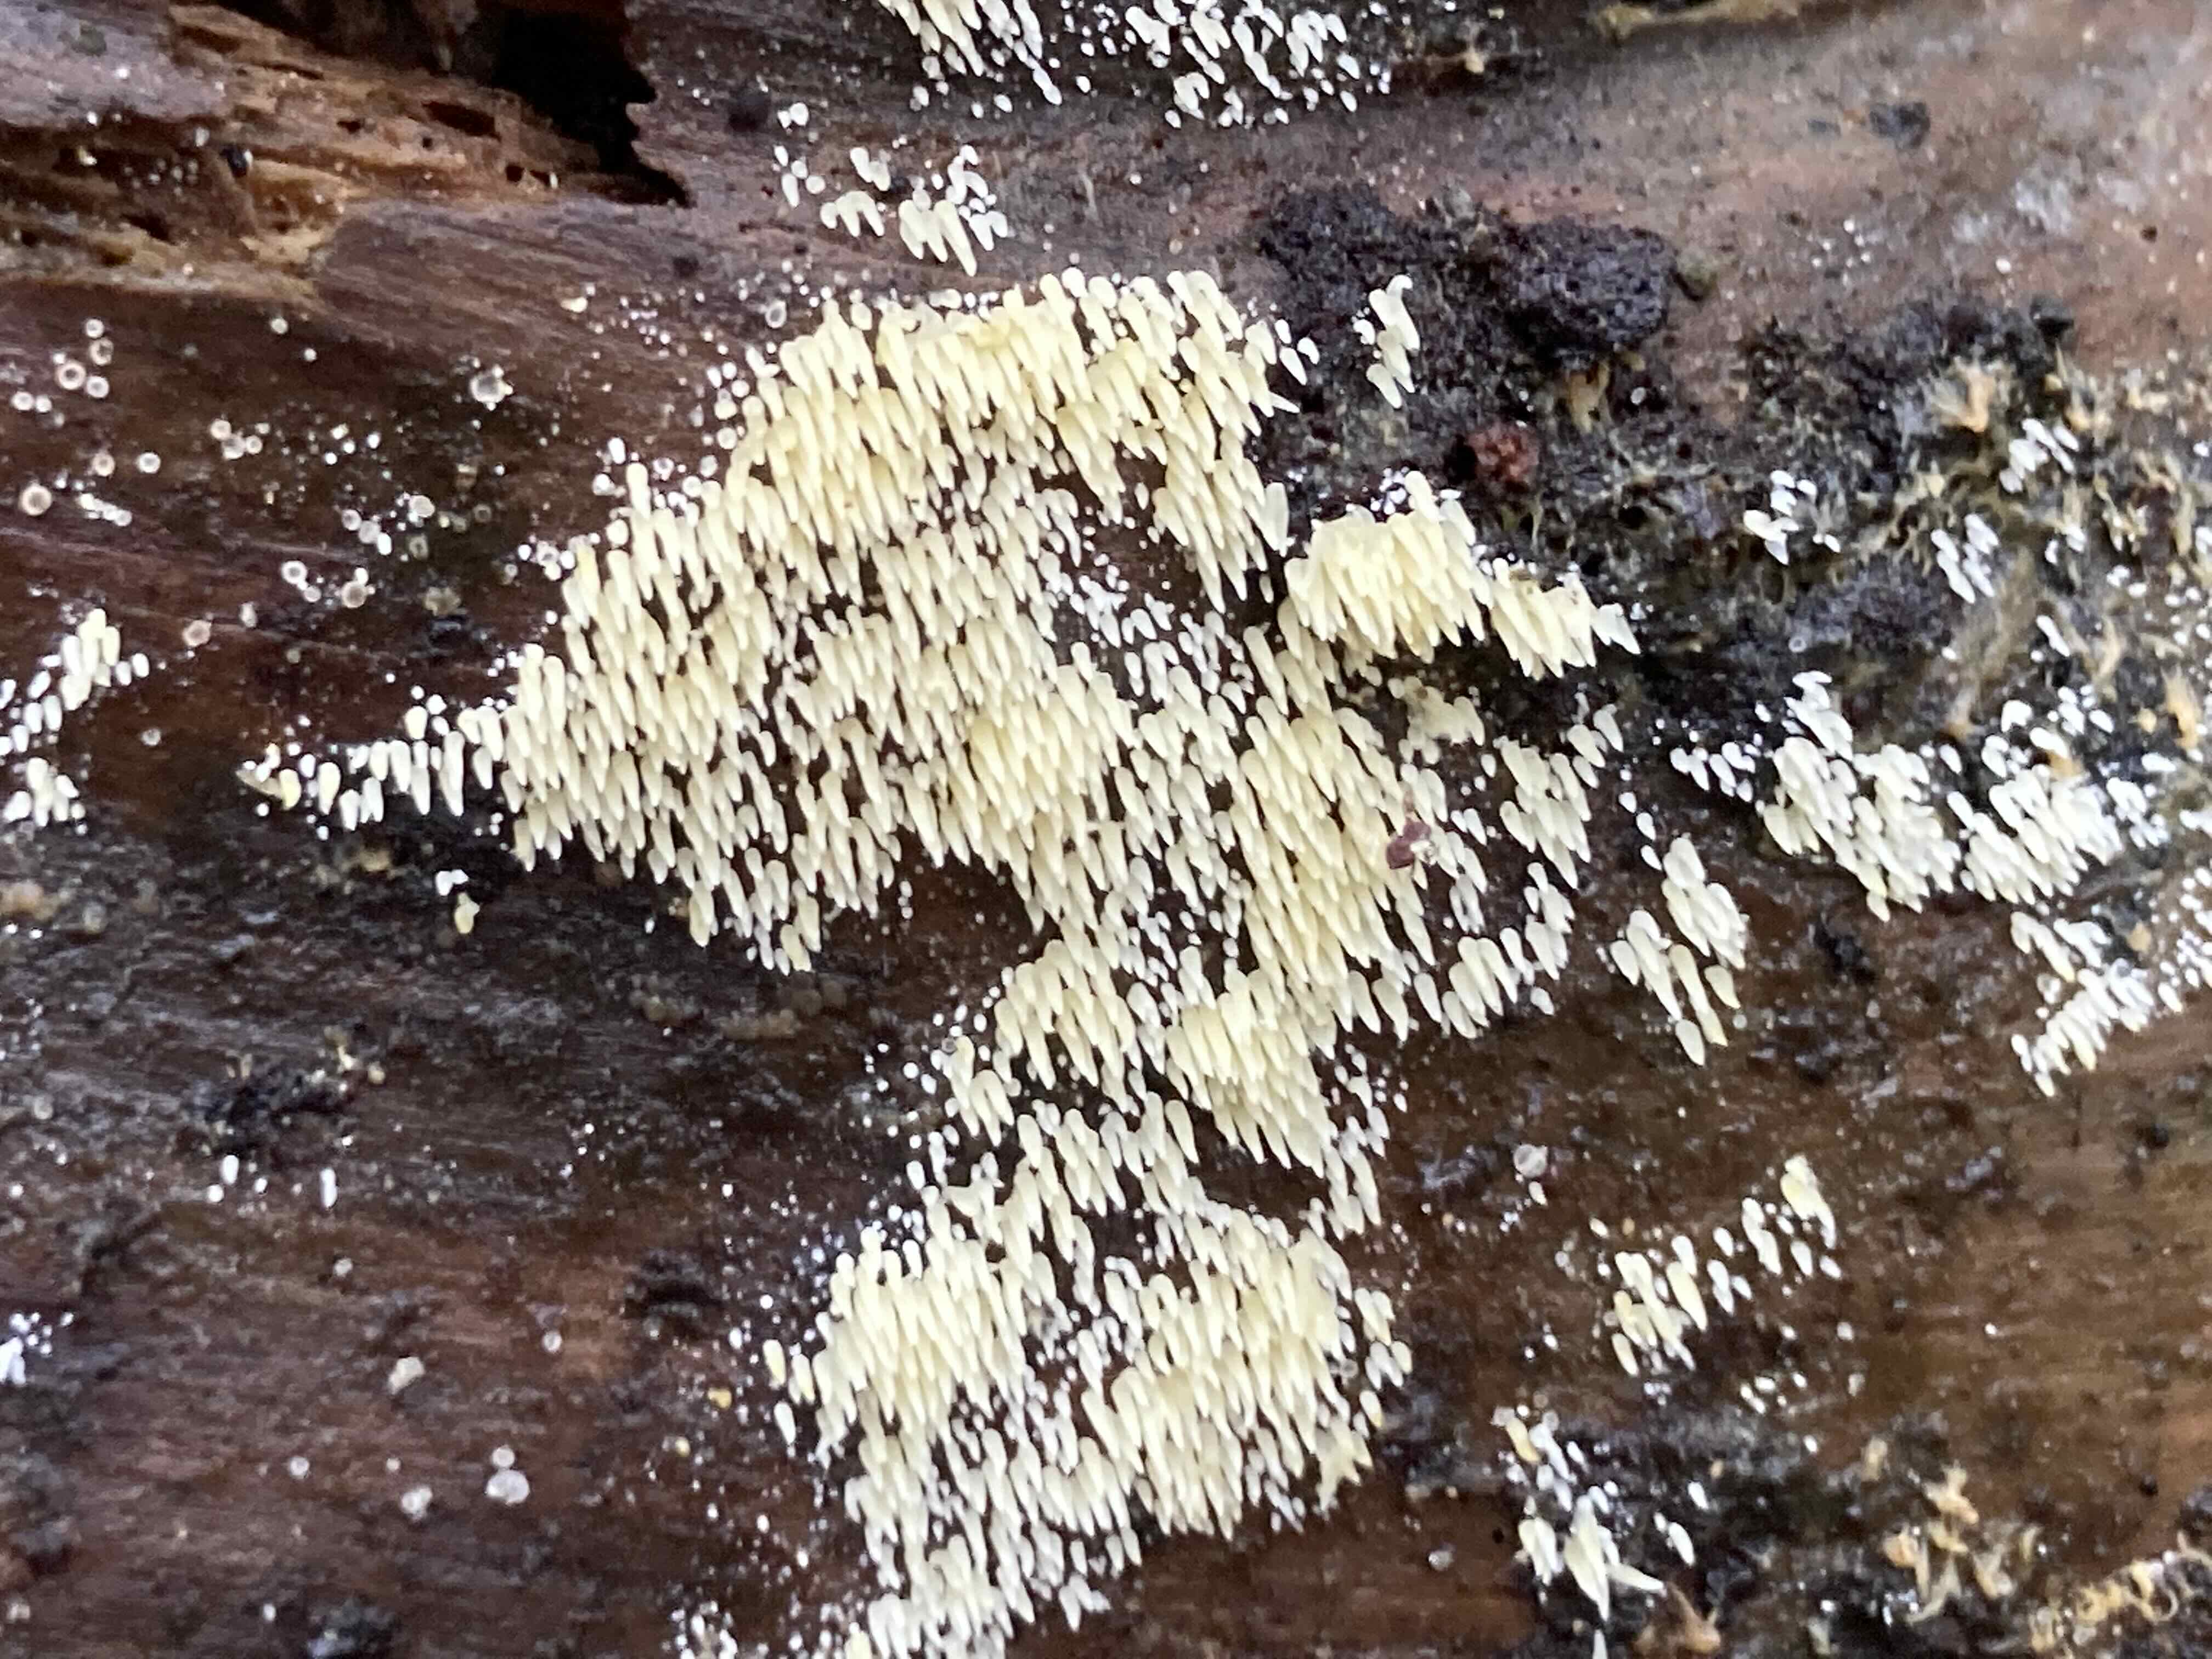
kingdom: Fungi
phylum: Basidiomycota
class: Agaricomycetes
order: Agaricales
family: Clavariaceae
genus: Mucronella
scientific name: Mucronella flava
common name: gul hængepig
